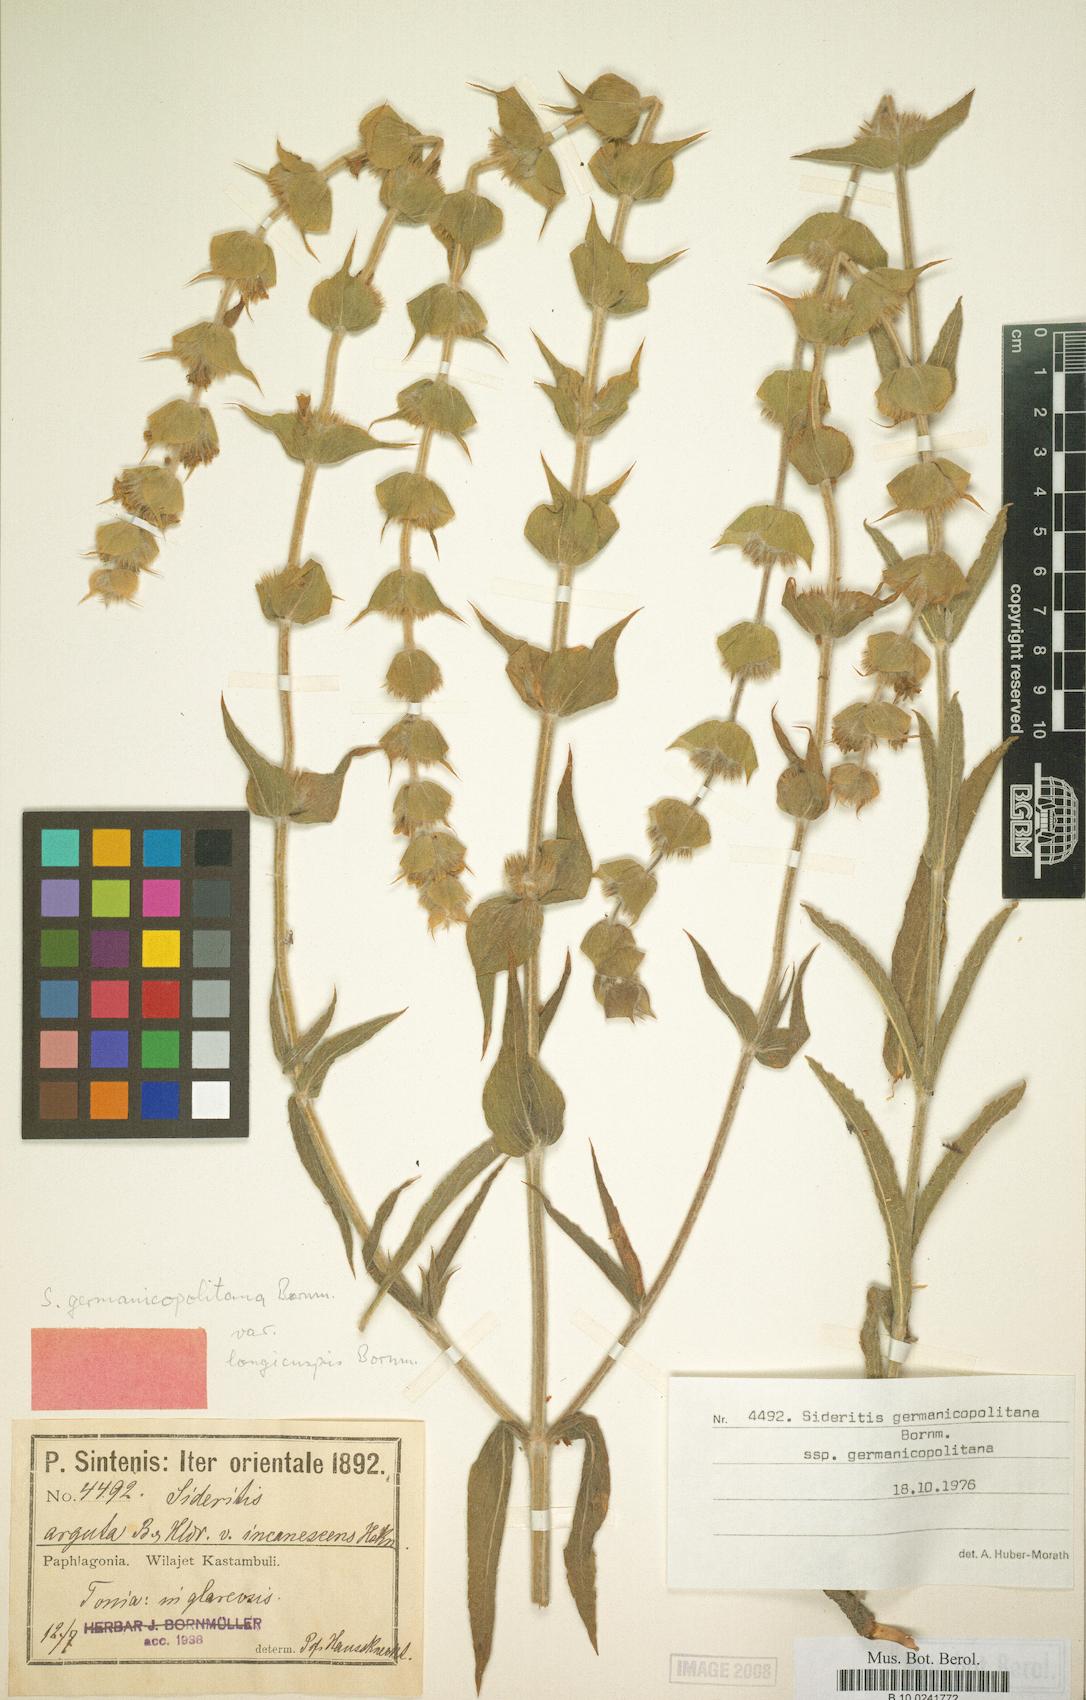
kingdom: Plantae
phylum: Tracheophyta
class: Magnoliopsida
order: Lamiales
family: Lamiaceae
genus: Sideritis
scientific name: Sideritis germanicopolitana
